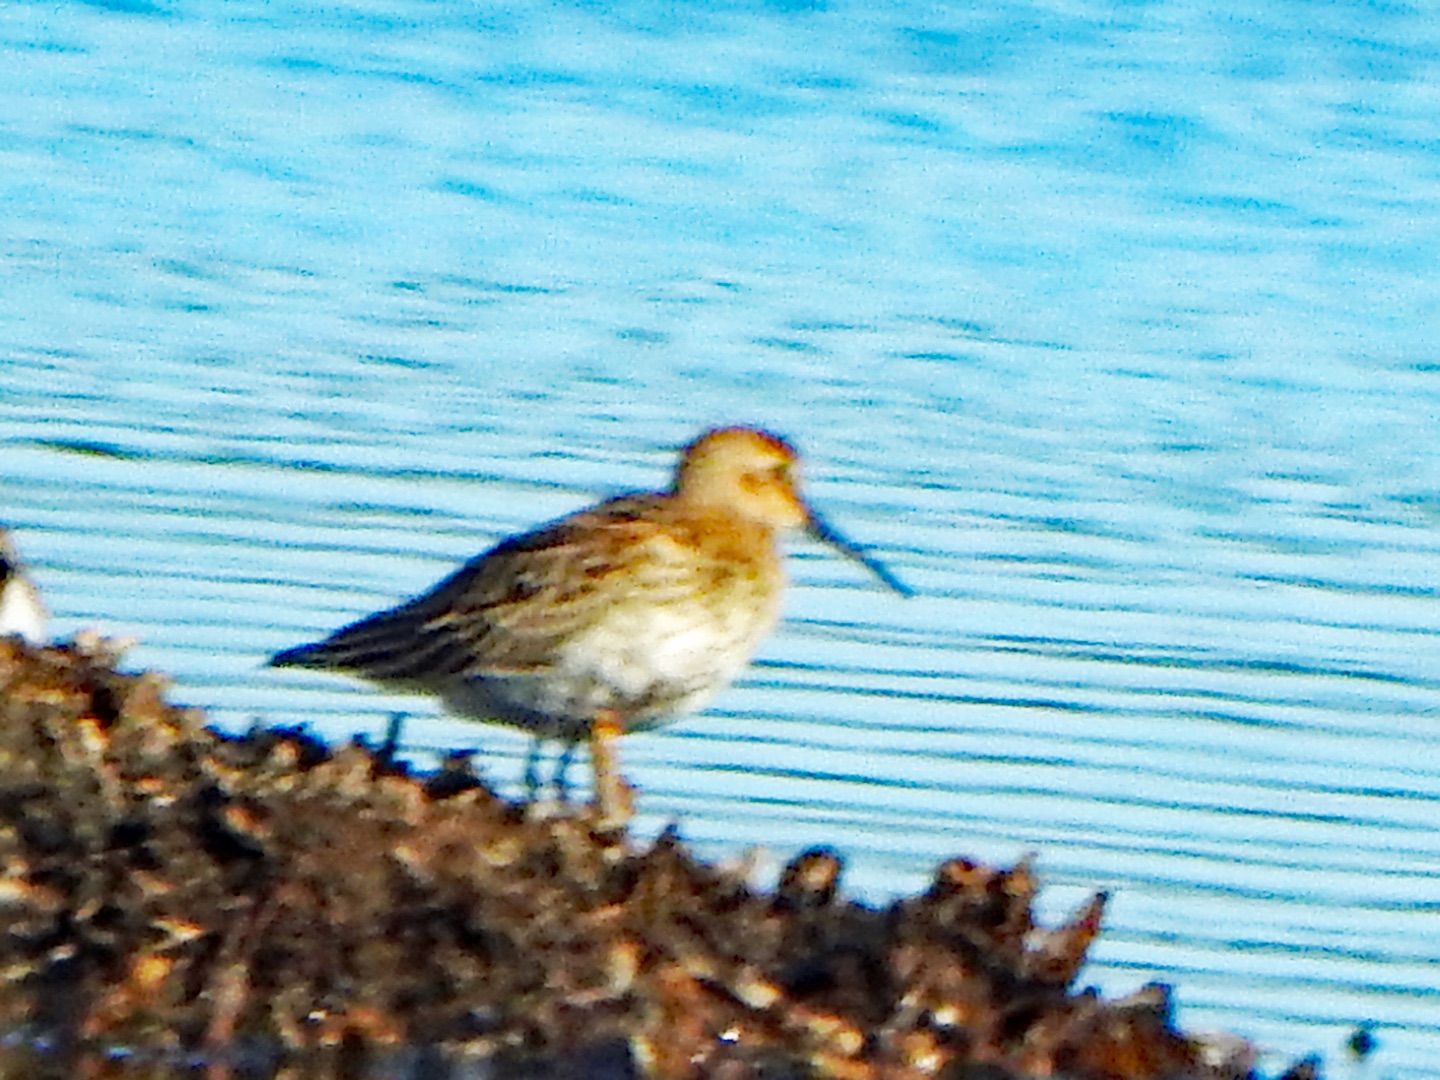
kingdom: Animalia
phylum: Chordata
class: Aves
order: Charadriiformes
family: Scolopacidae
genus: Calidris
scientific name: Calidris alpina
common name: Almindelig ryle
